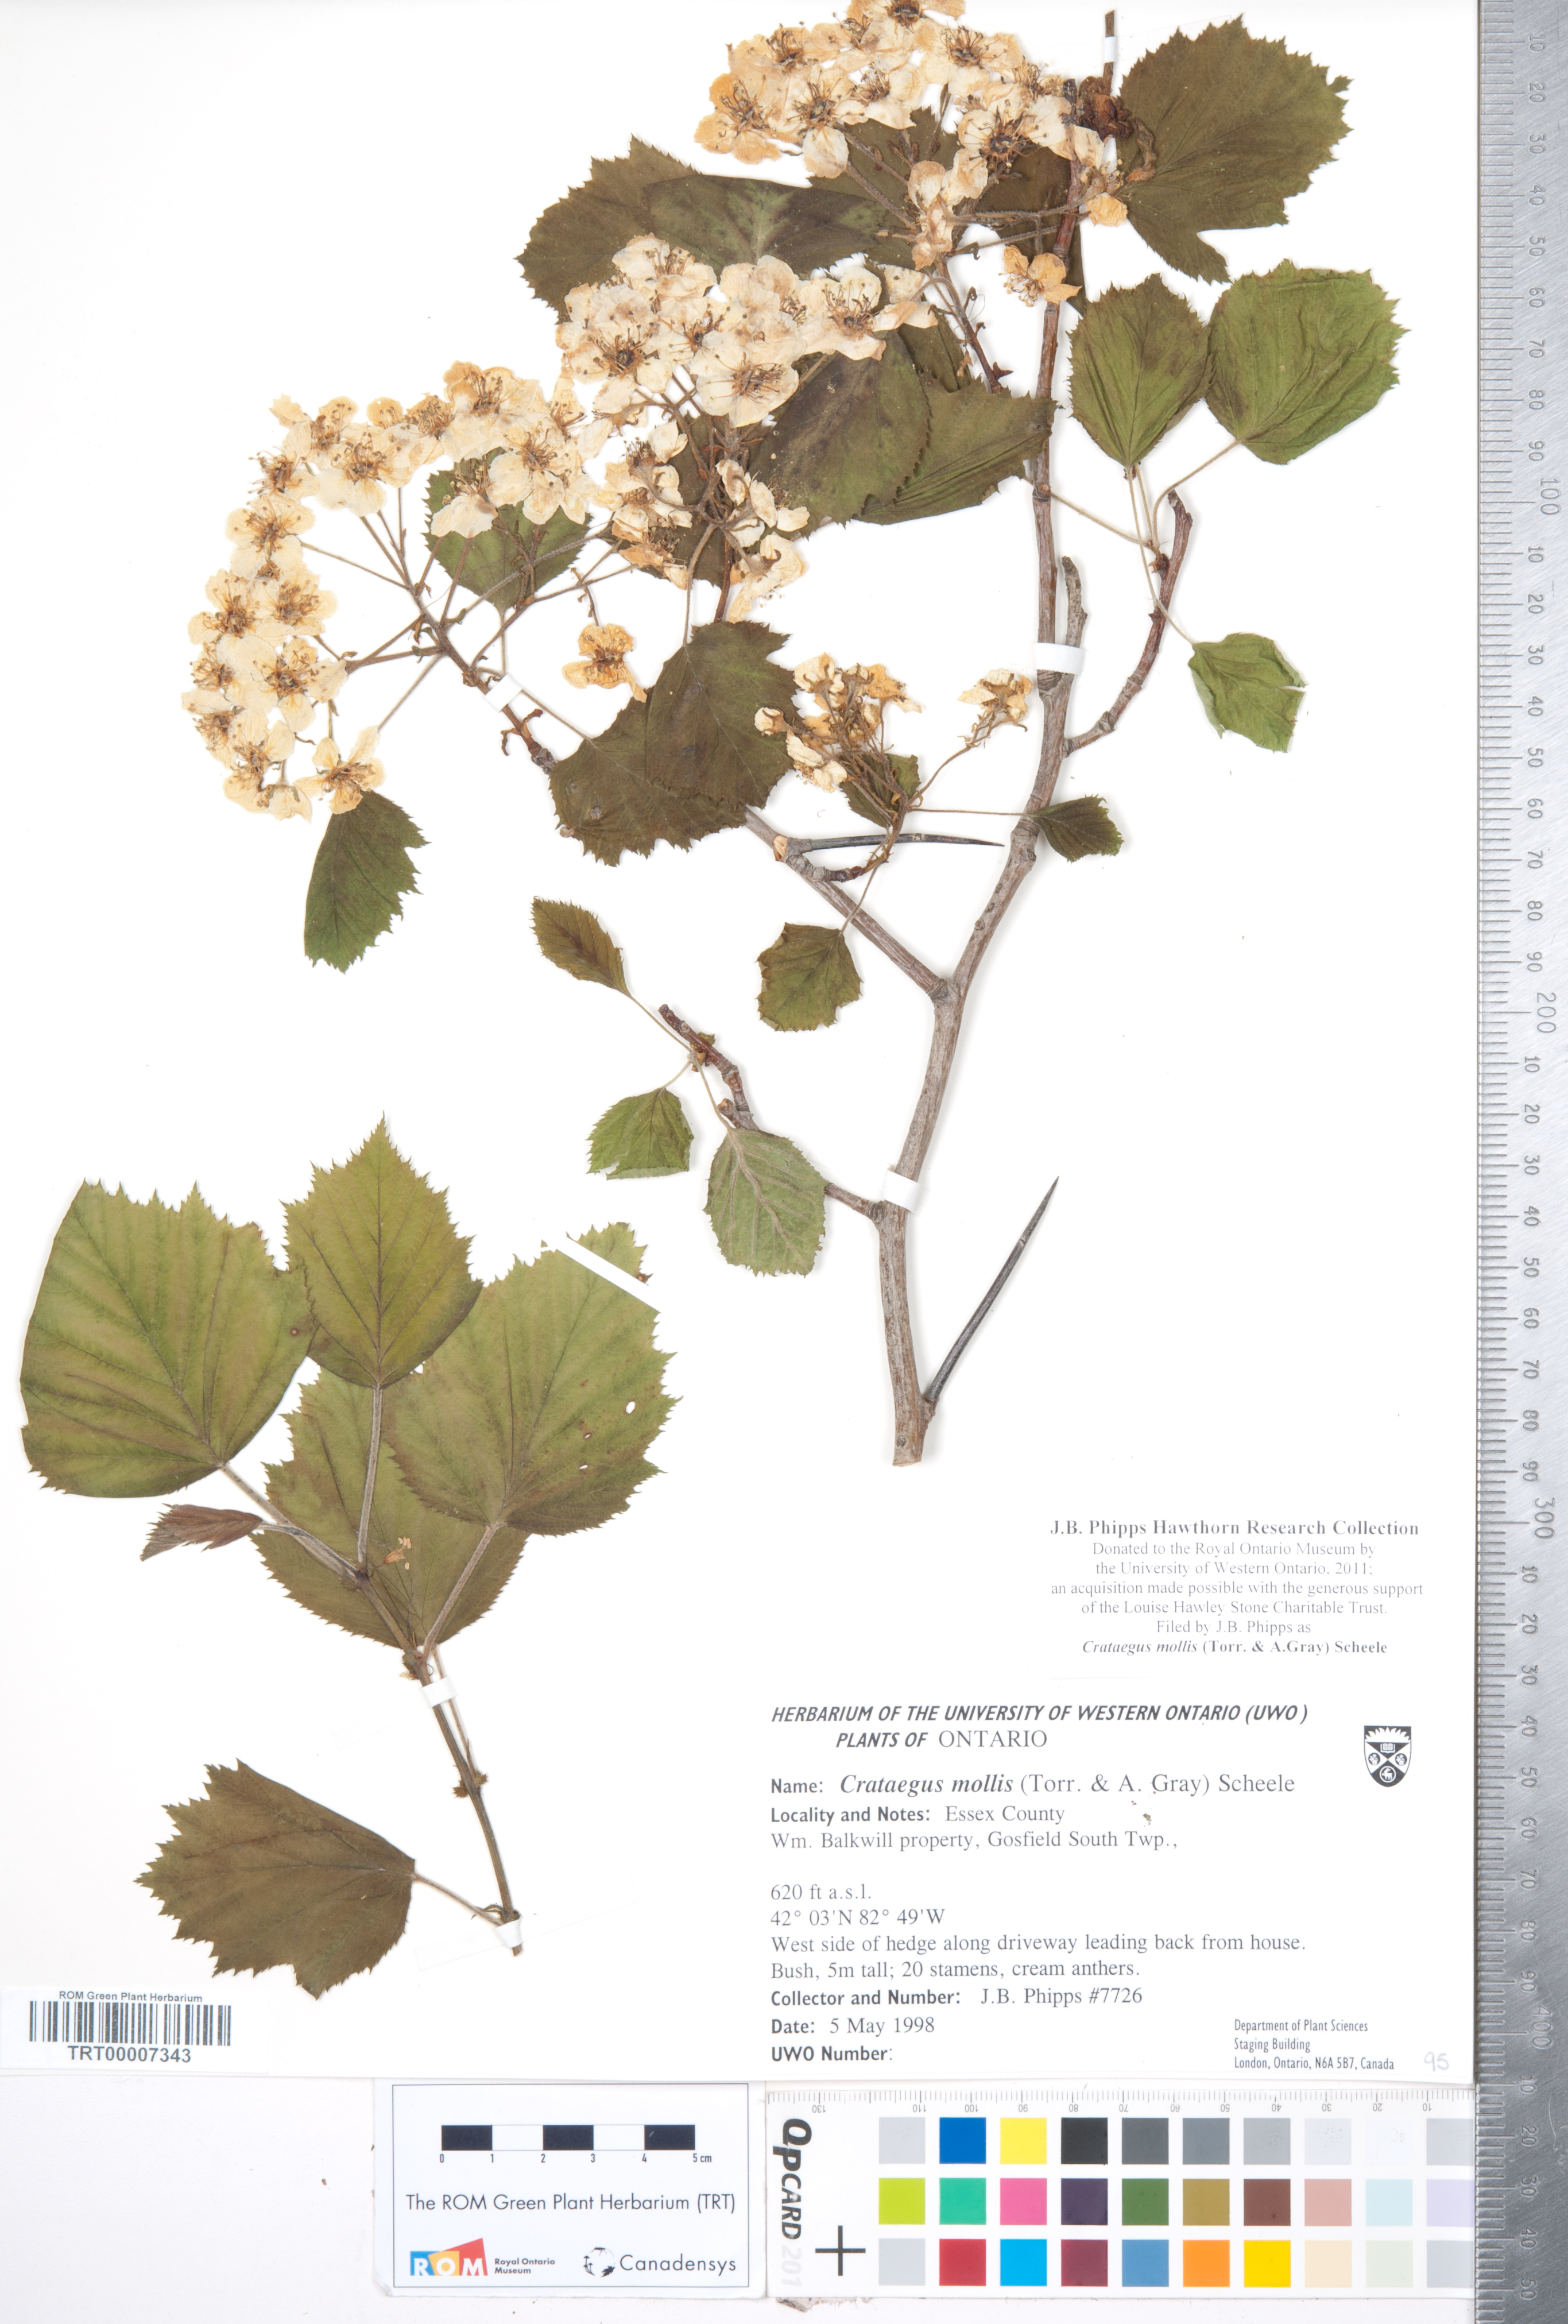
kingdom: Plantae
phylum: Tracheophyta
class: Magnoliopsida
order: Rosales
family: Rosaceae
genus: Crataegus
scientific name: Crataegus mollis
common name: Downy hawthorn
